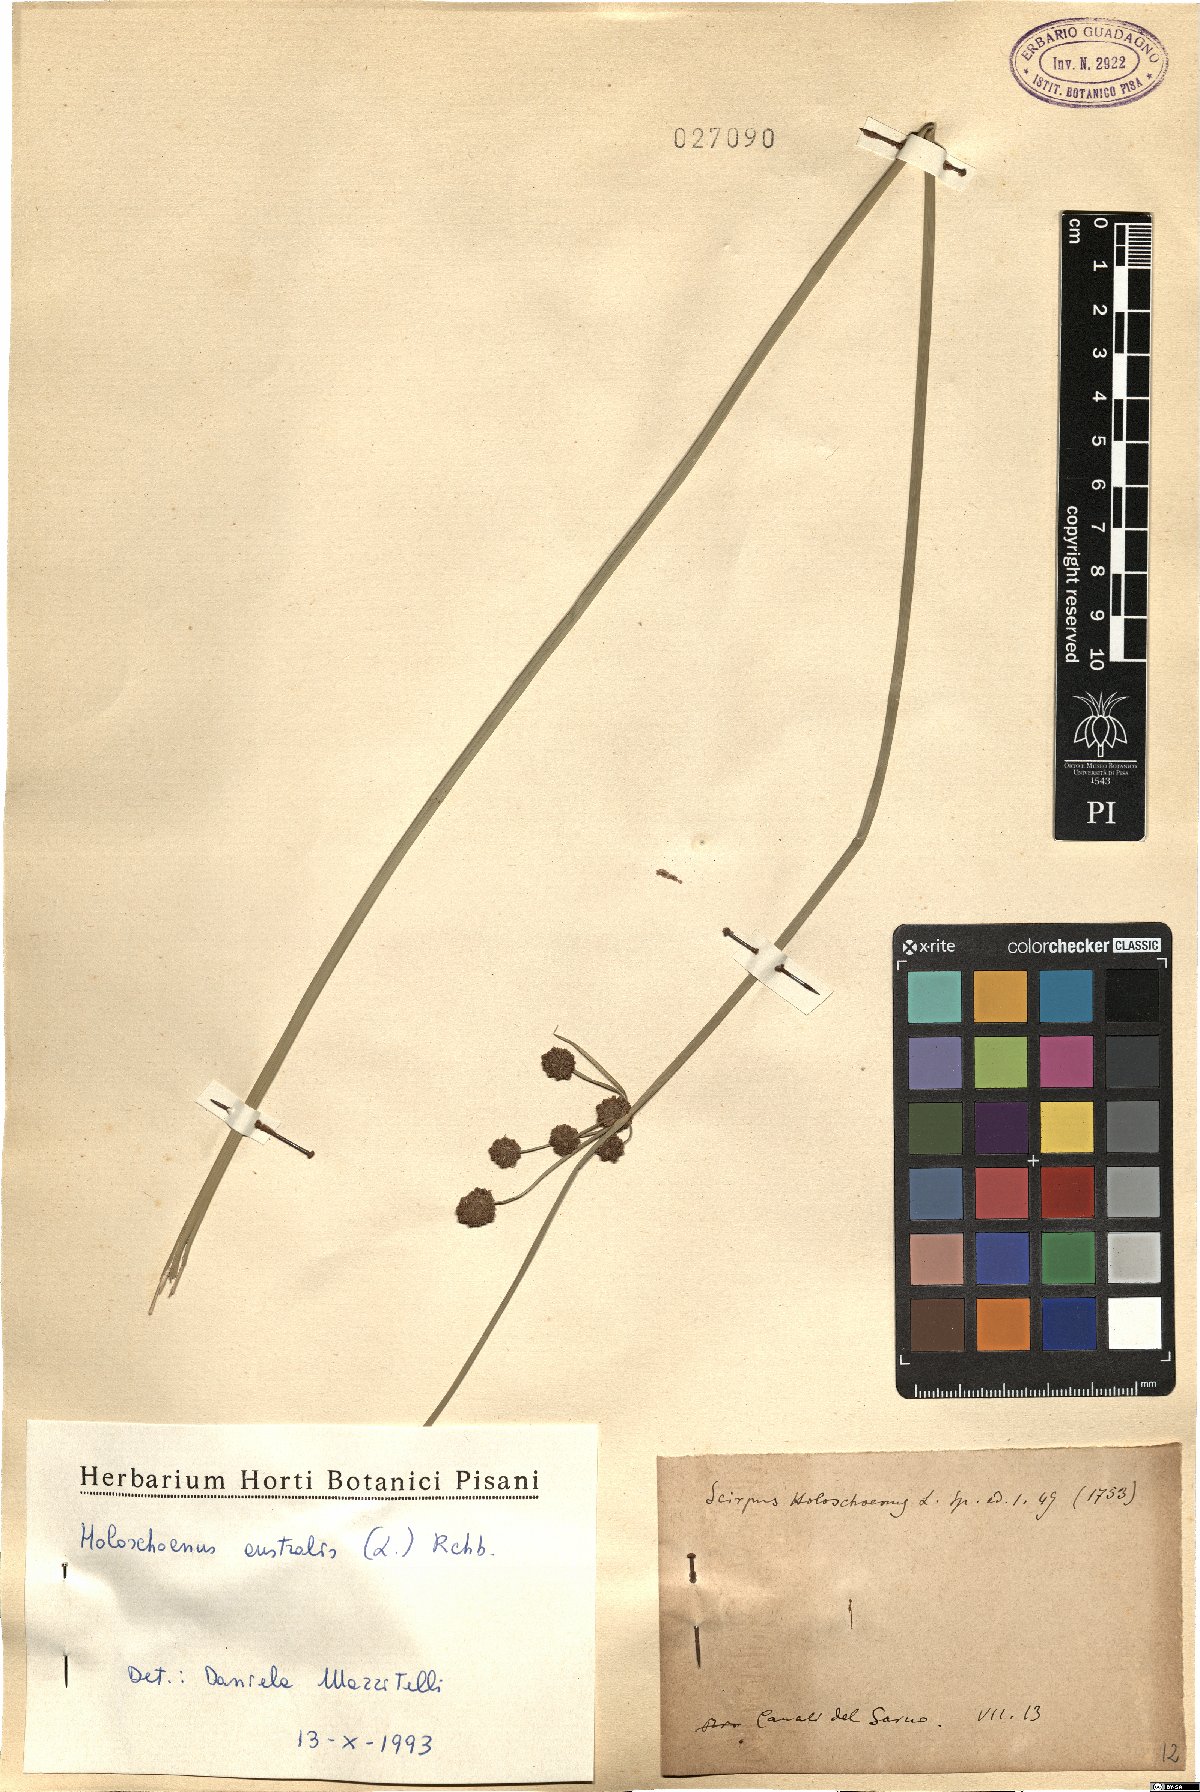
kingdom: Plantae
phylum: Tracheophyta
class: Liliopsida
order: Poales
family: Cyperaceae
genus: Scirpoides
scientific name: Scirpoides holoschoenus
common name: Round-headed club-rush
